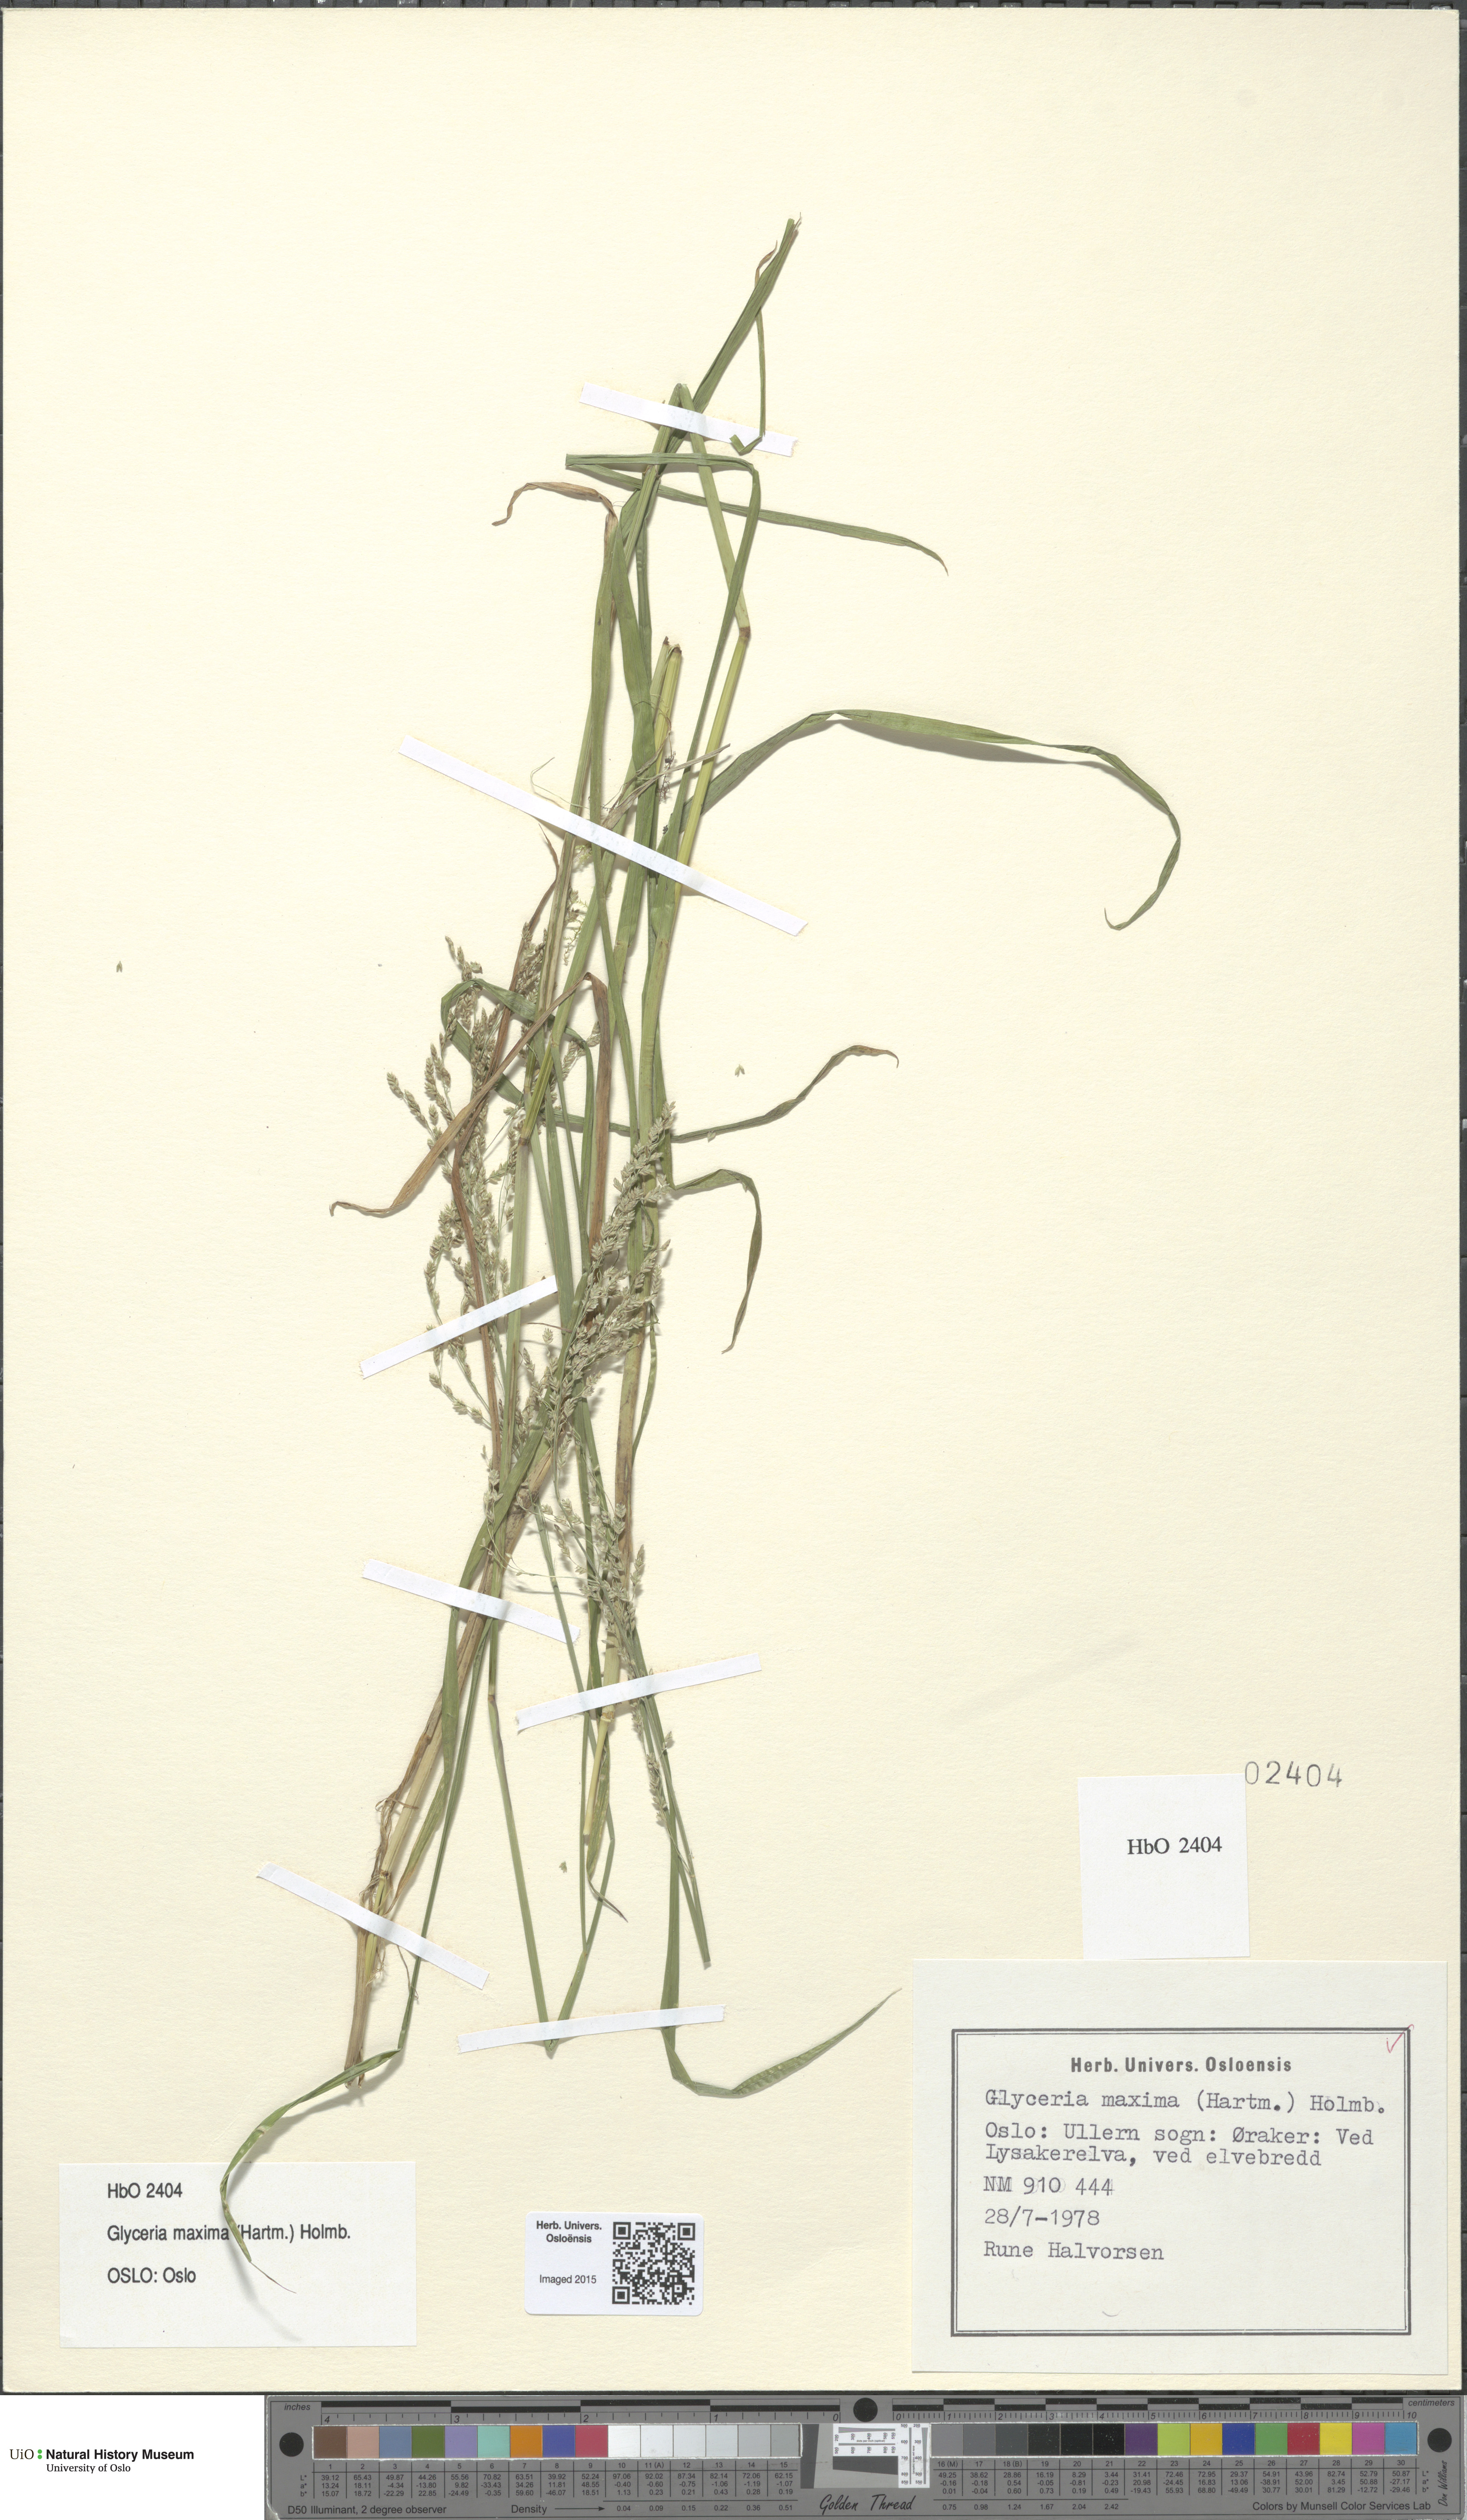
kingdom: Plantae
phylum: Tracheophyta
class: Liliopsida
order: Poales
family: Poaceae
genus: Glyceria
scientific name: Glyceria maxima
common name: Reed mannagrass
